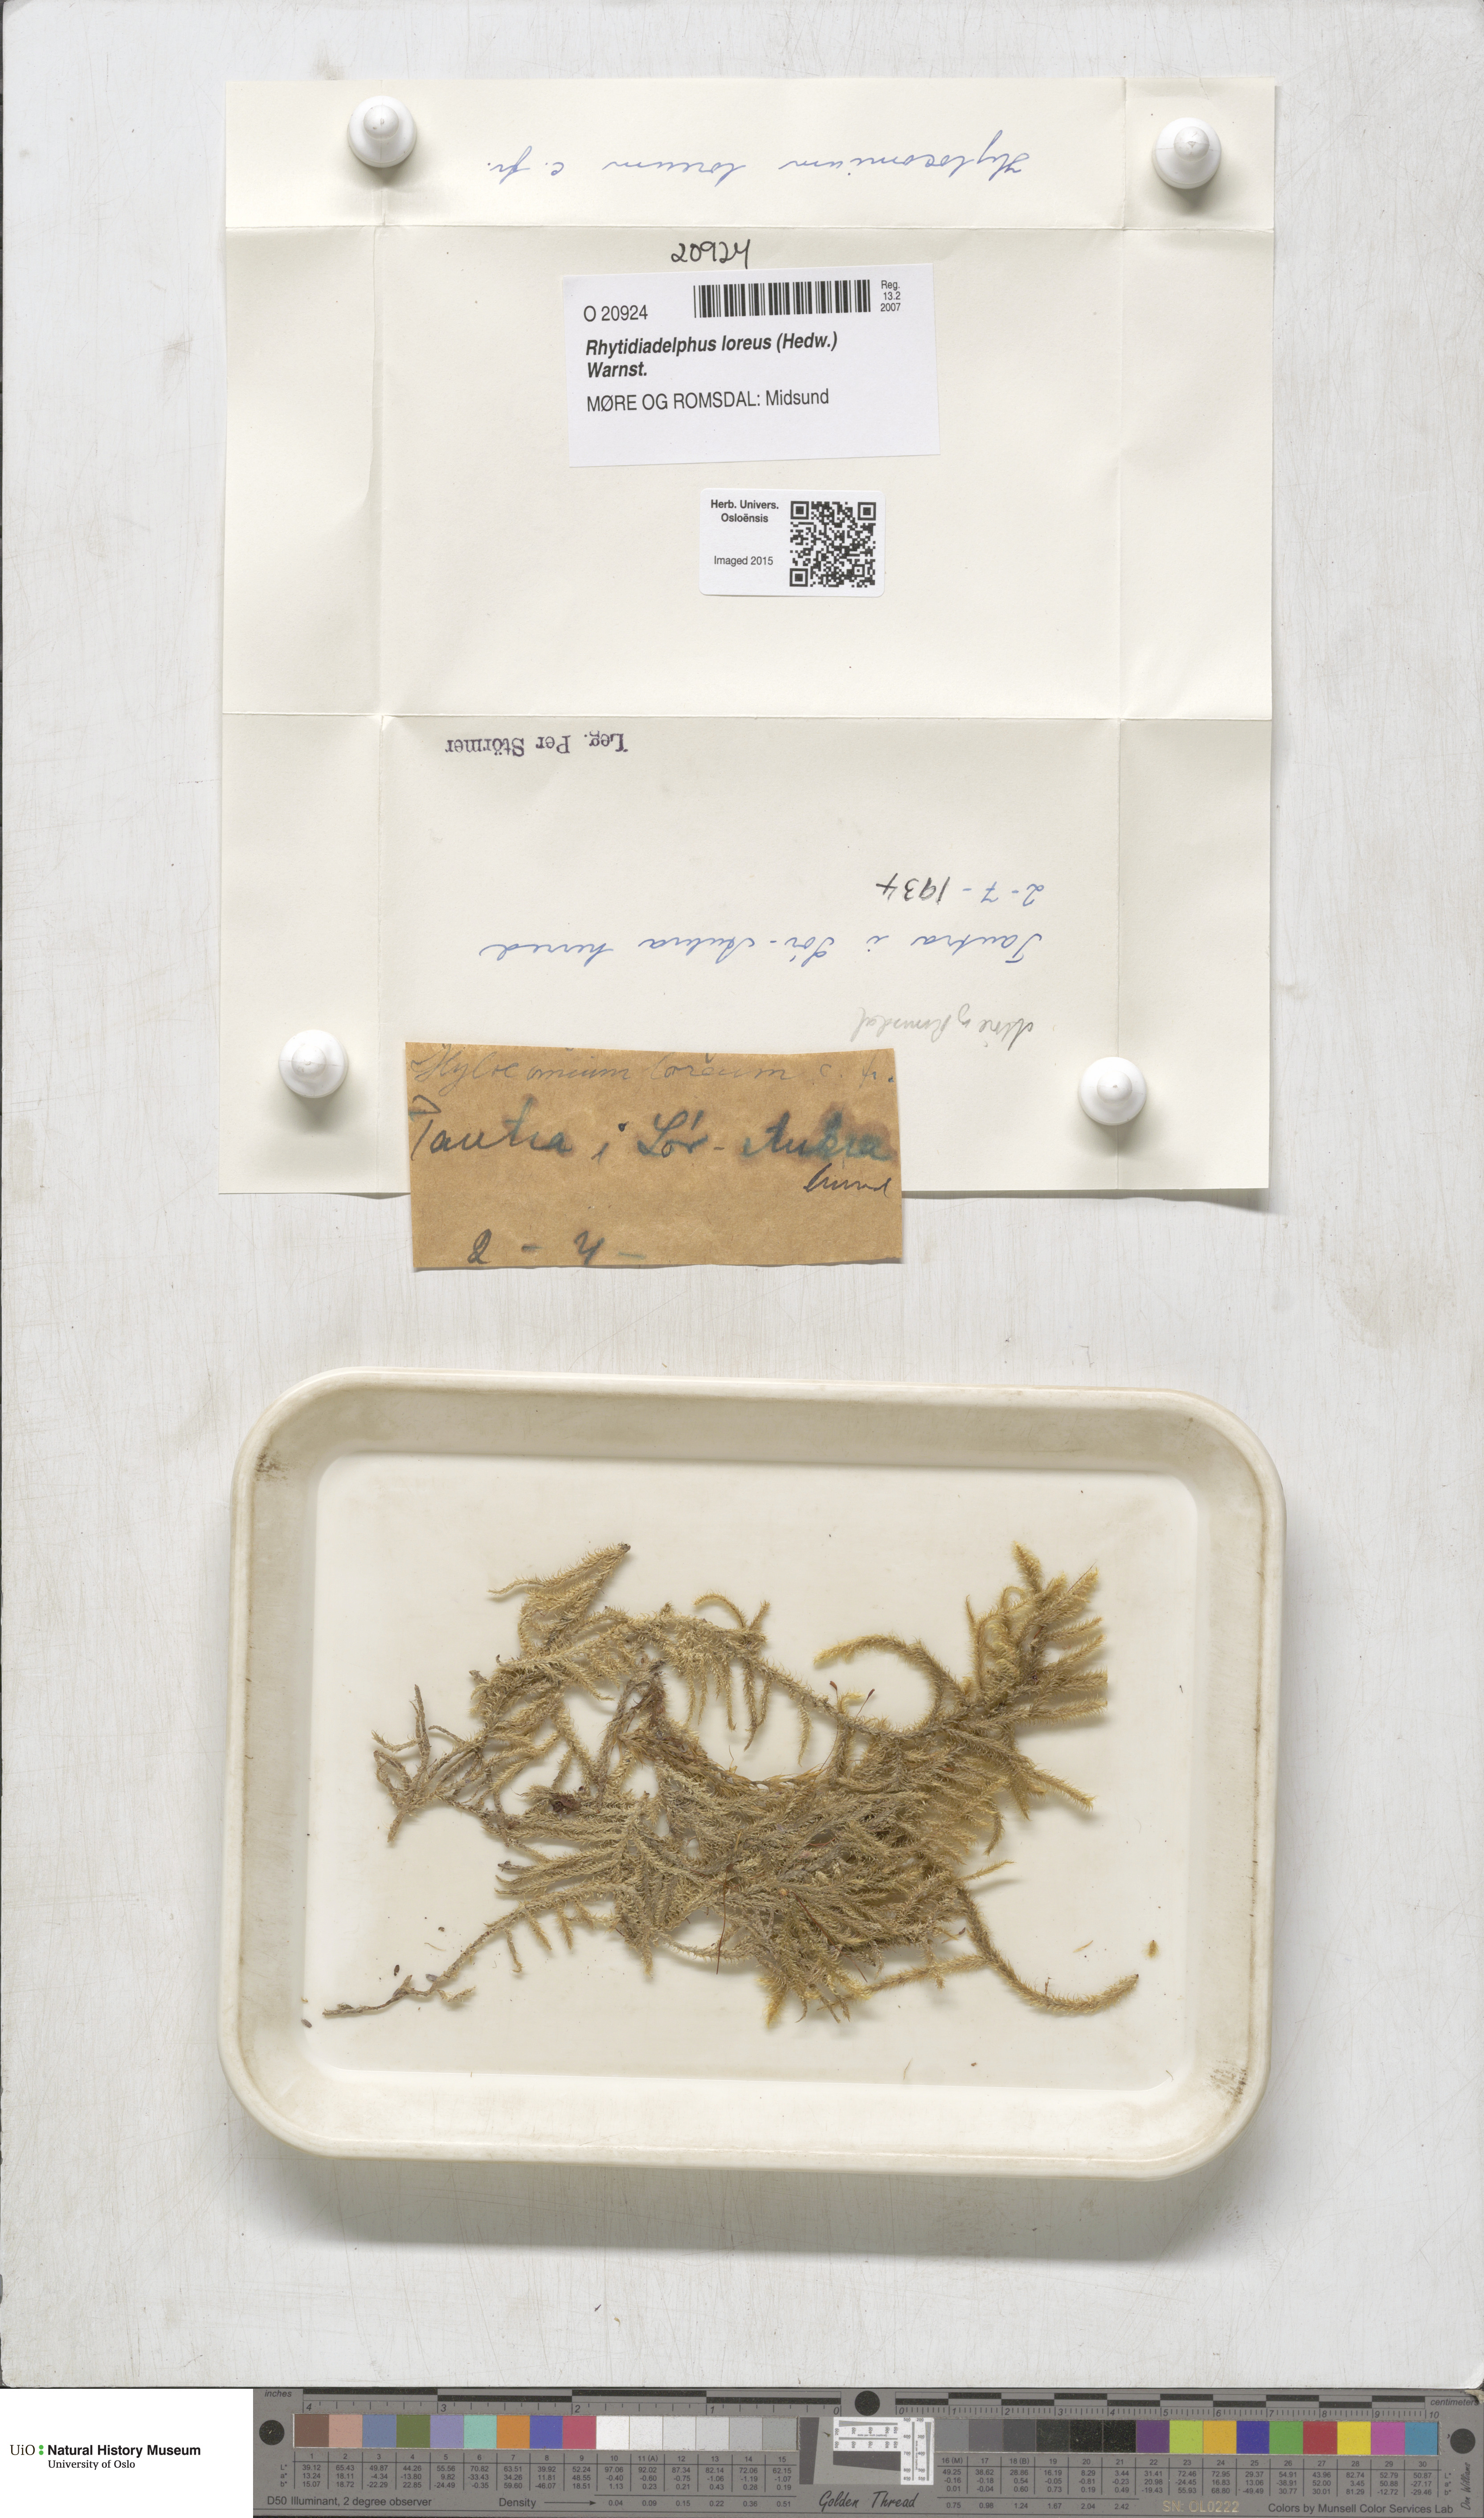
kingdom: Plantae
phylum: Bryophyta
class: Bryopsida
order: Hypnales
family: Hylocomiaceae
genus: Rhytidiadelphus
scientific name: Rhytidiadelphus loreus
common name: Lanky moss
